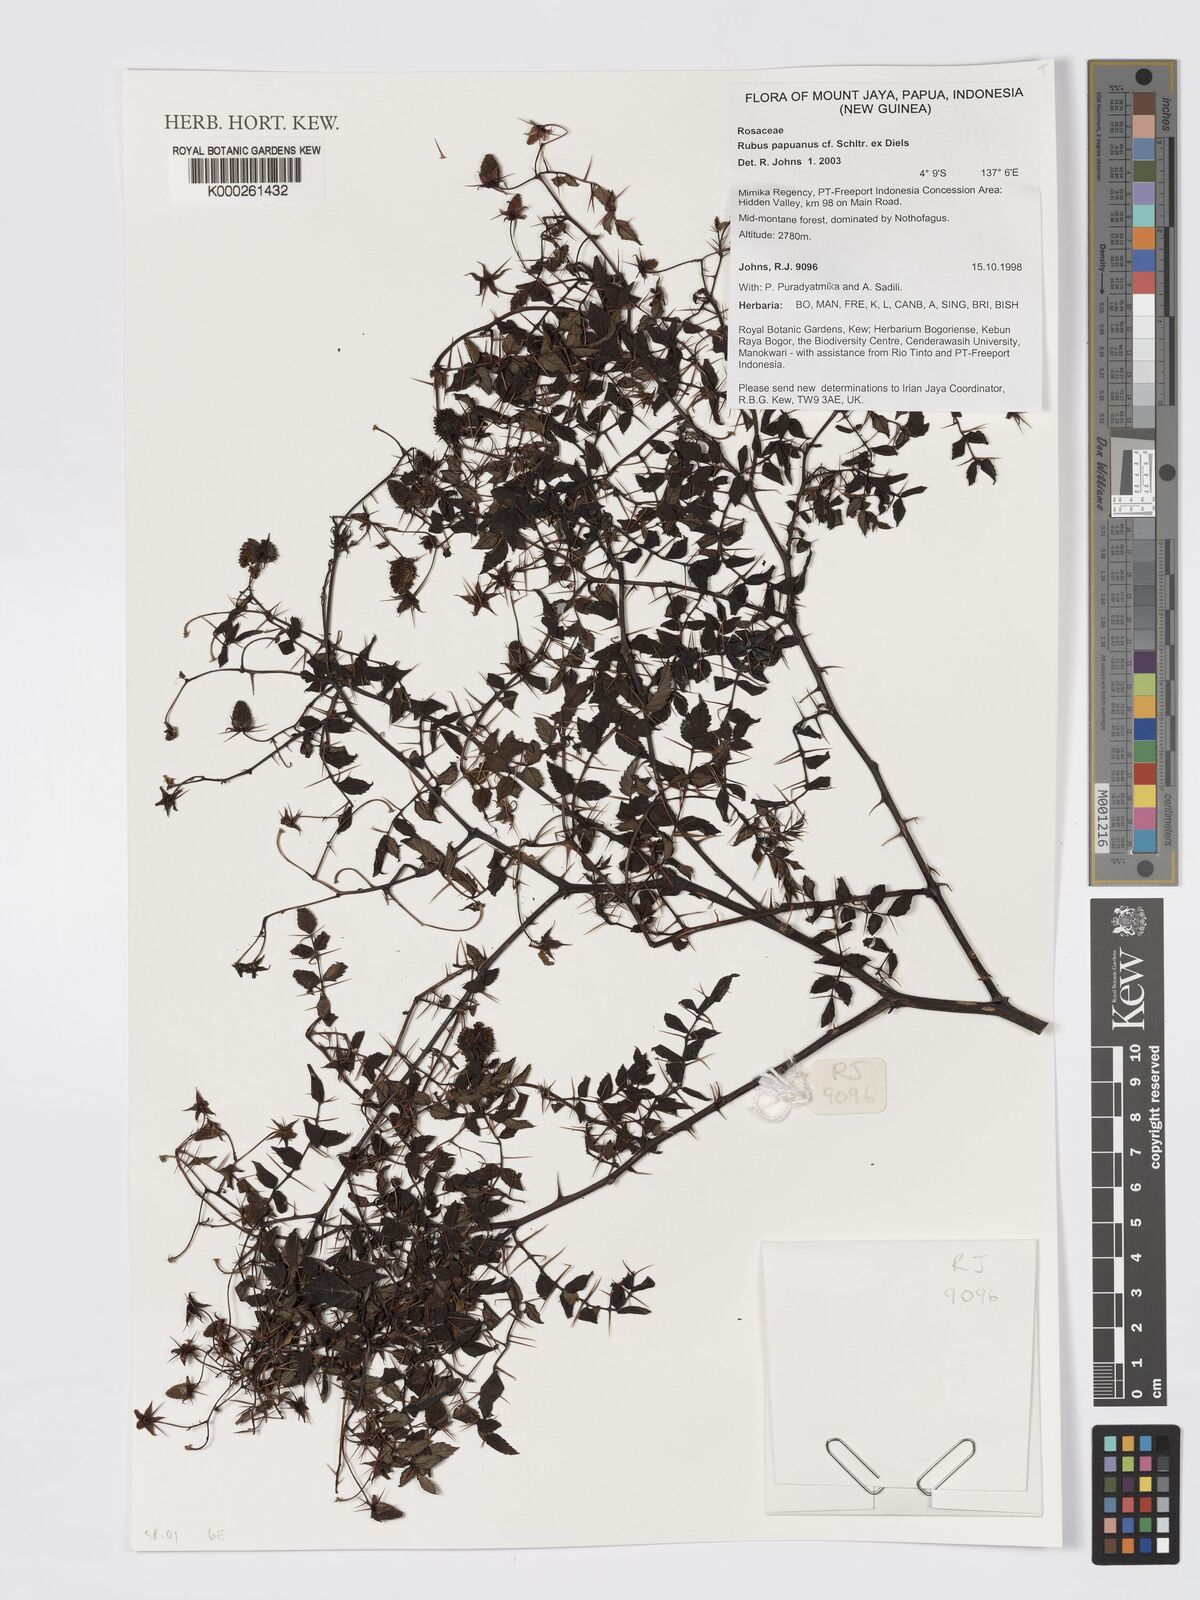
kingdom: Plantae
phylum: Tracheophyta
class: Magnoliopsida
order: Rosales
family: Rosaceae
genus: Rubus
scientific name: Rubus papuanus
